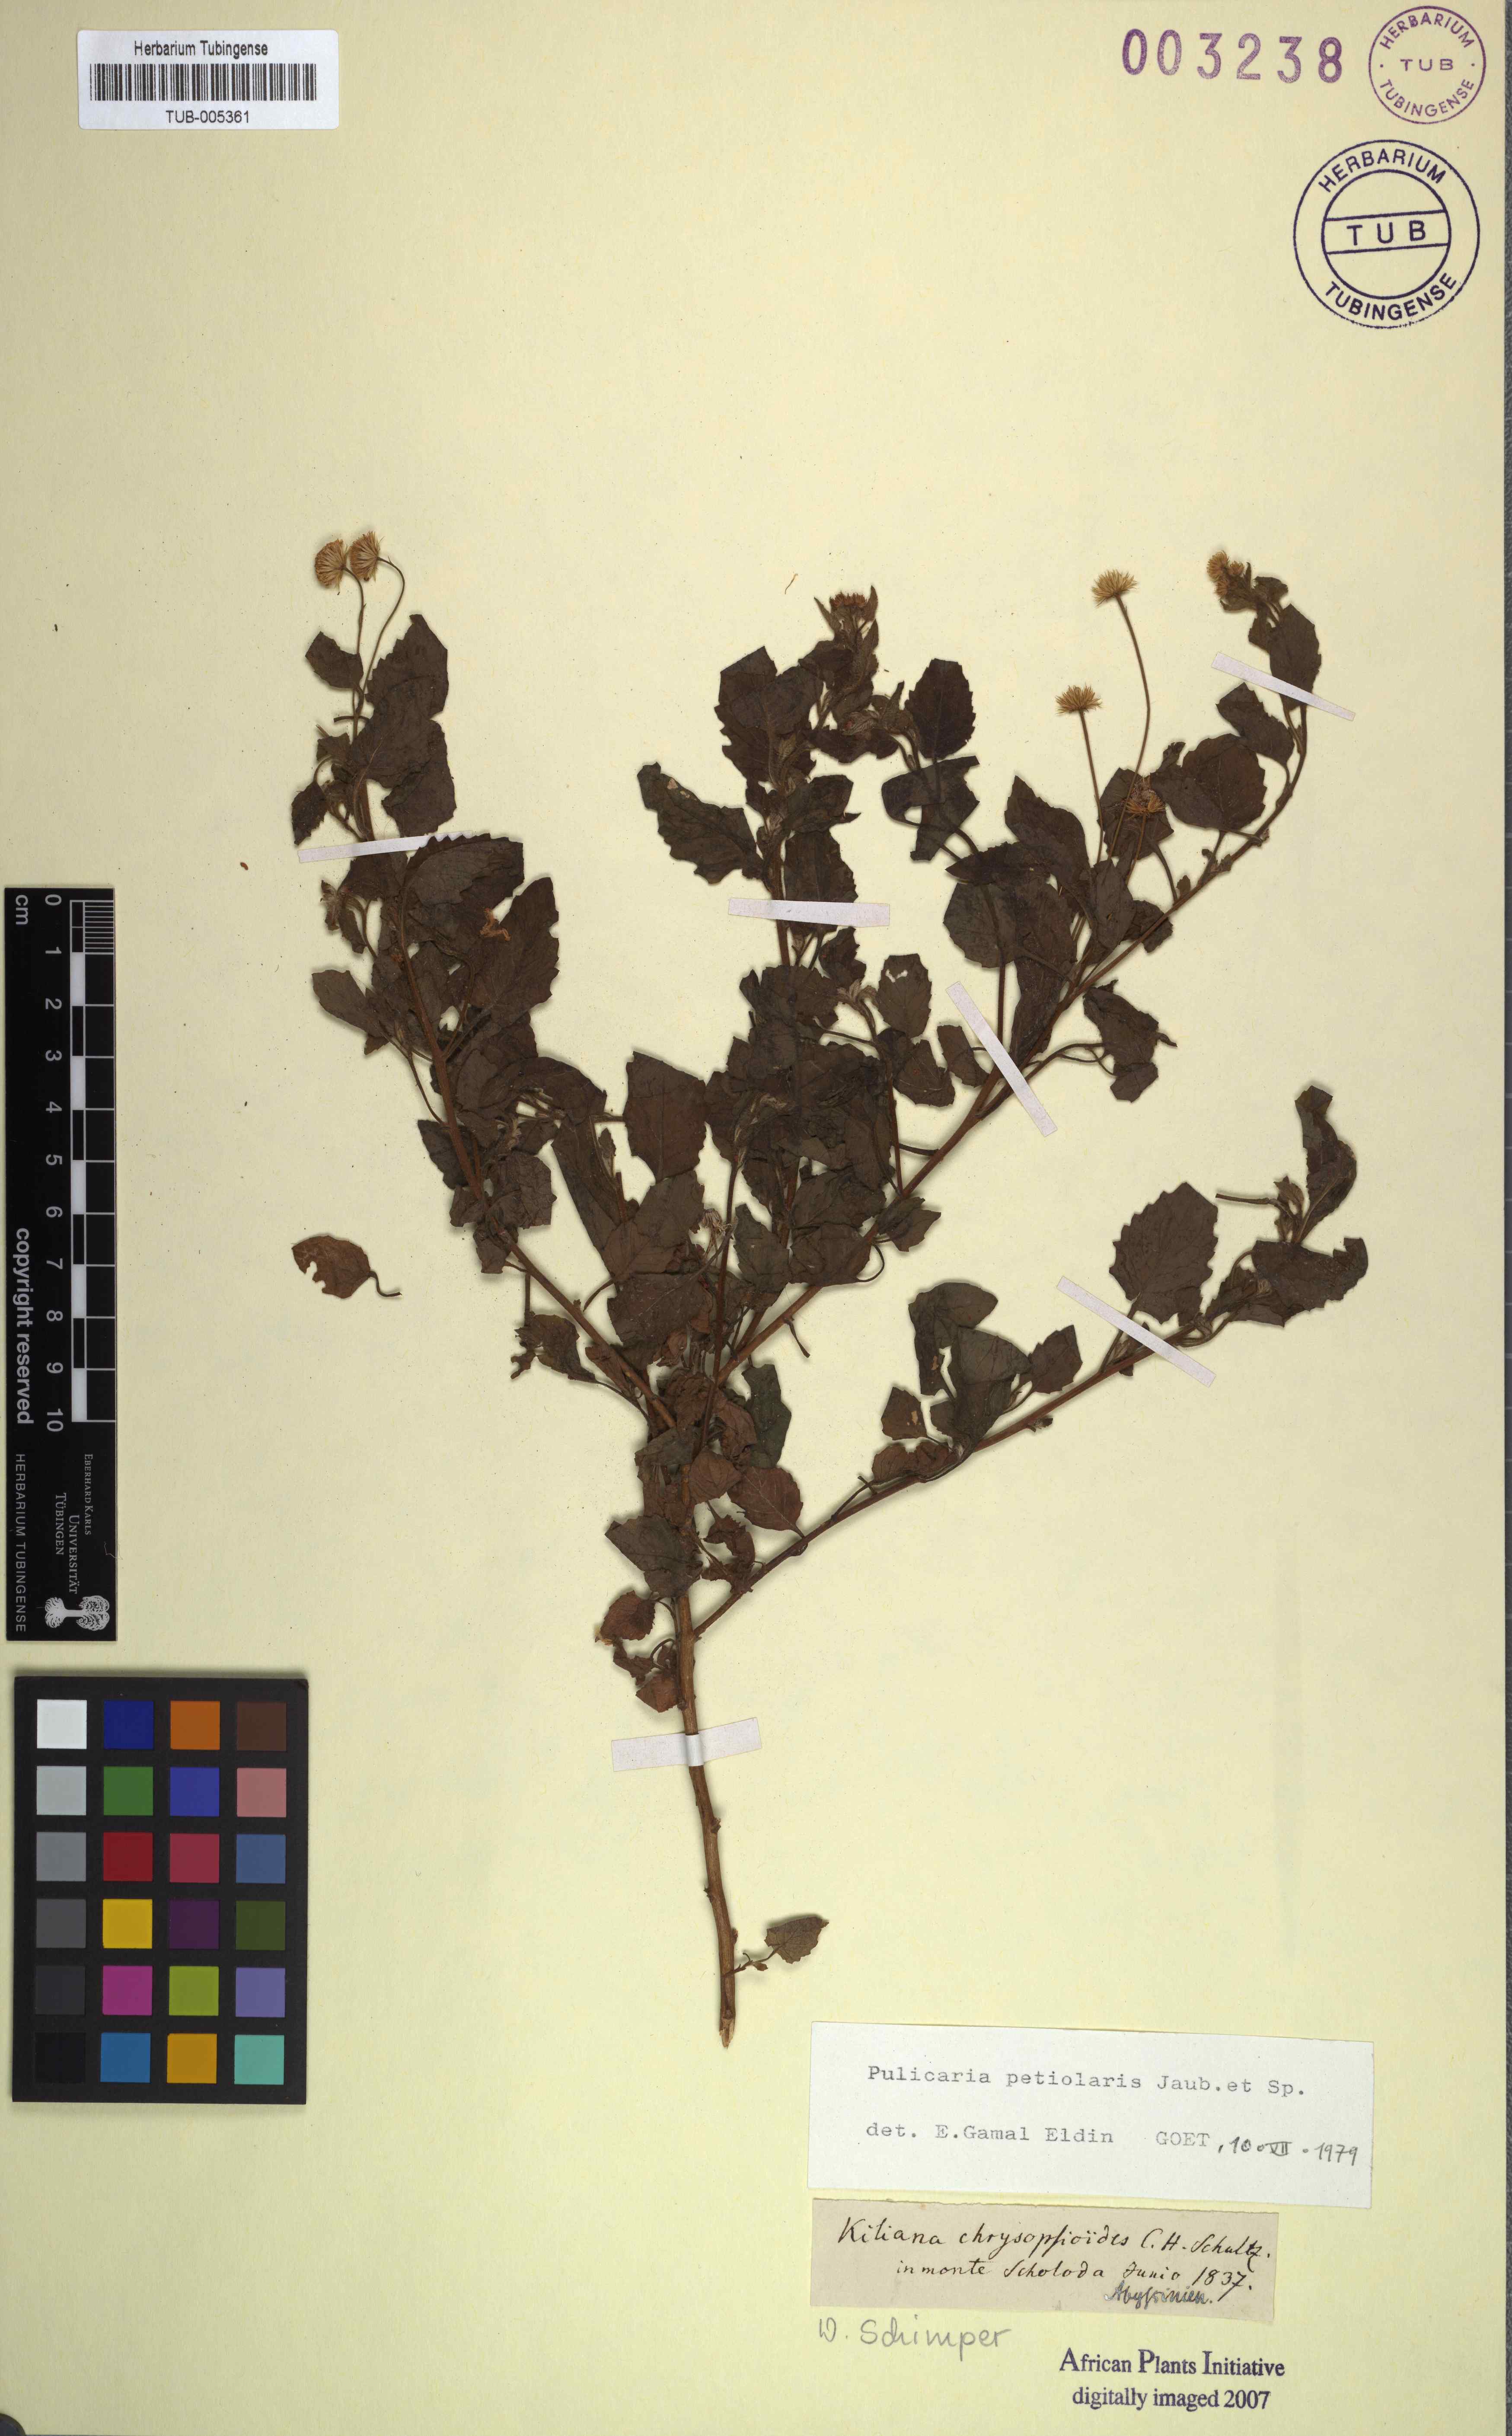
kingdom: Plantae
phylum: Tracheophyta
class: Magnoliopsida
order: Asterales
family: Asteraceae
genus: Pulicaria
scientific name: Pulicaria petiolaris
